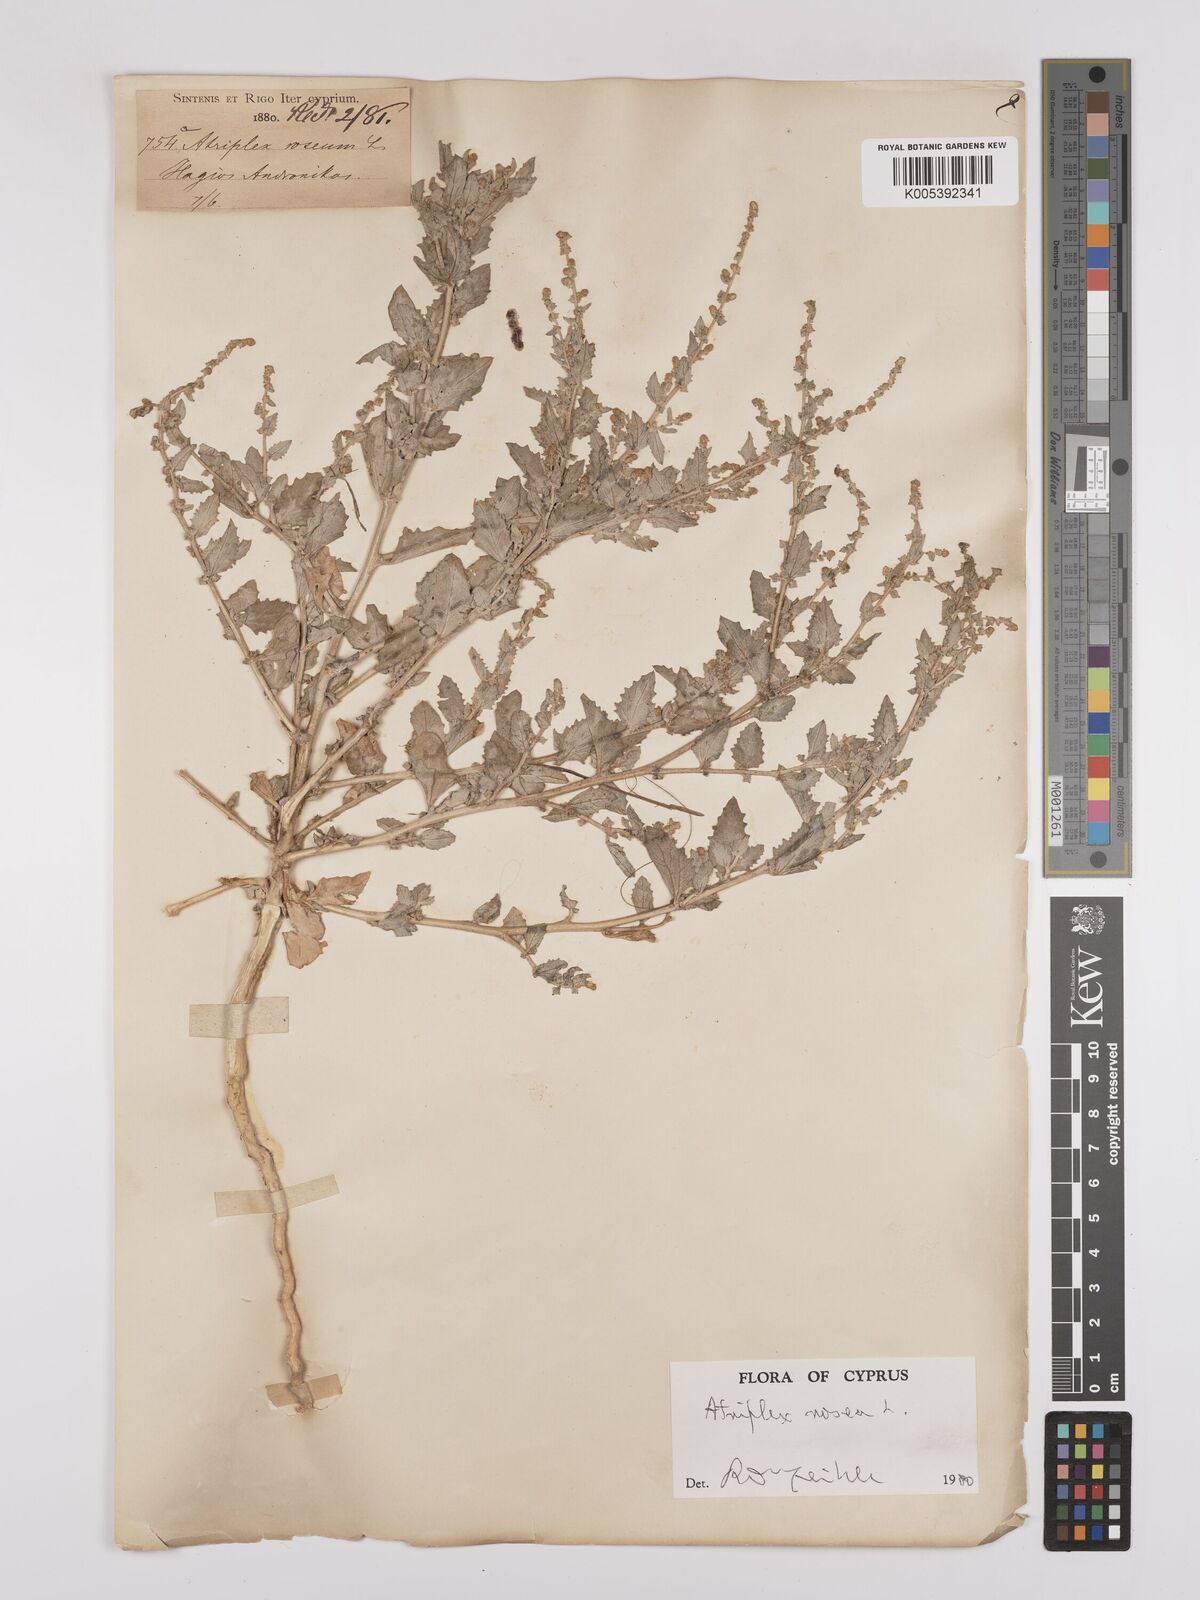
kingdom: Plantae
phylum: Tracheophyta
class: Magnoliopsida
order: Caryophyllales
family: Amaranthaceae
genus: Atriplex
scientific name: Atriplex
